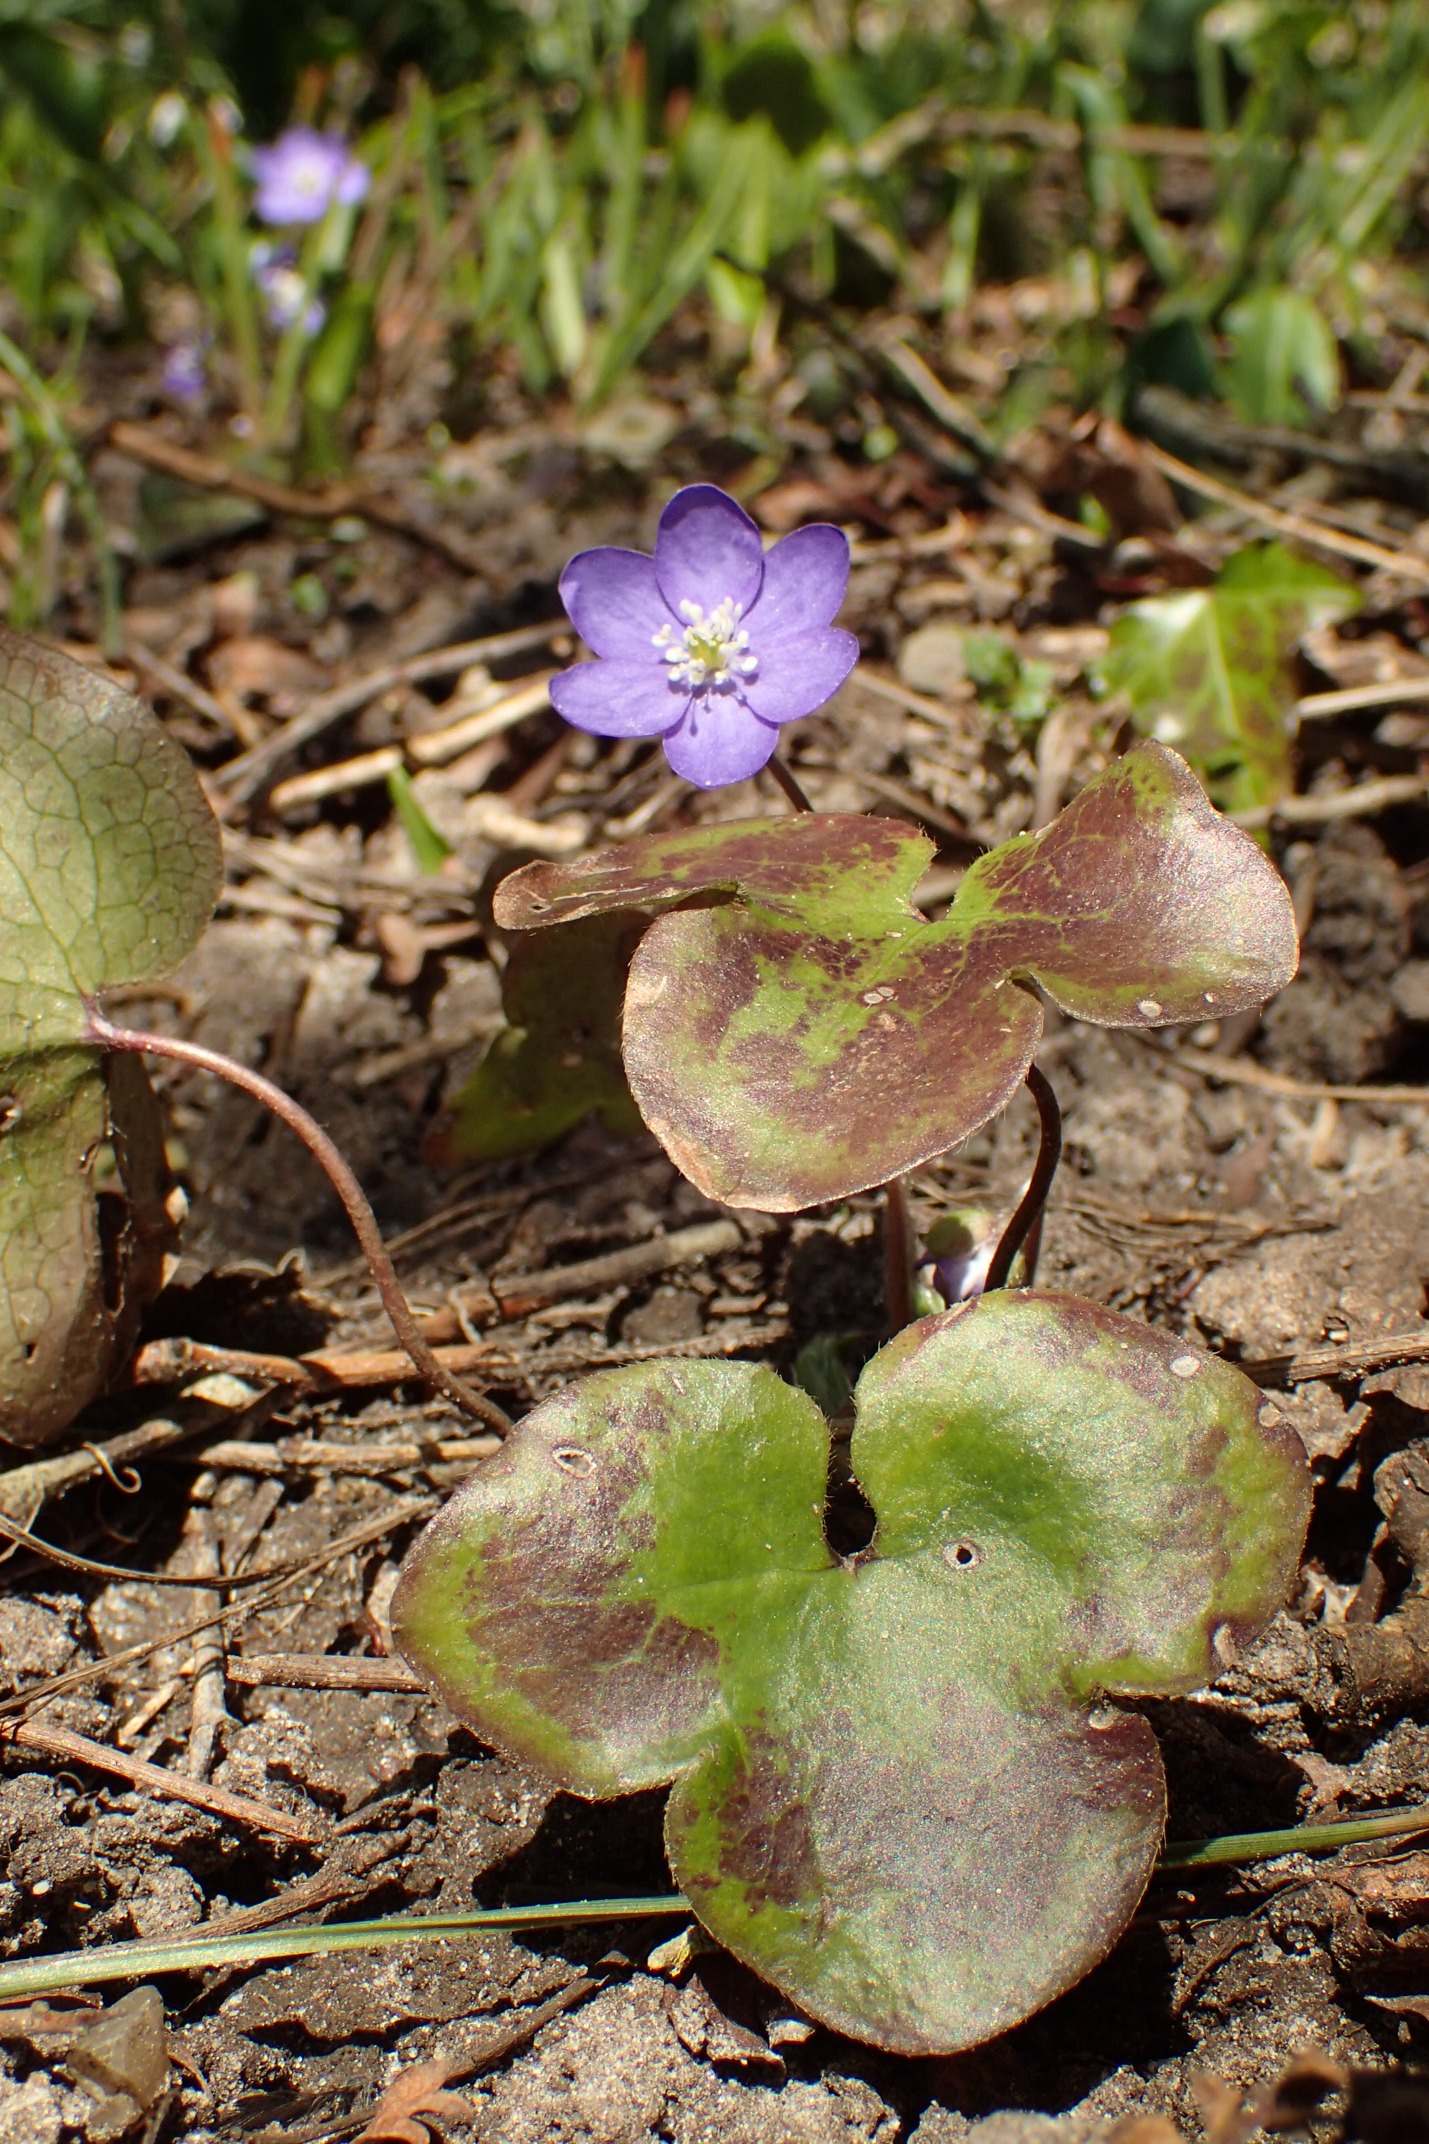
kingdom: Plantae
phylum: Tracheophyta
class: Magnoliopsida
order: Ranunculales
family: Ranunculaceae
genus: Hepatica
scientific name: Hepatica nobilis
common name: Blå anemone
